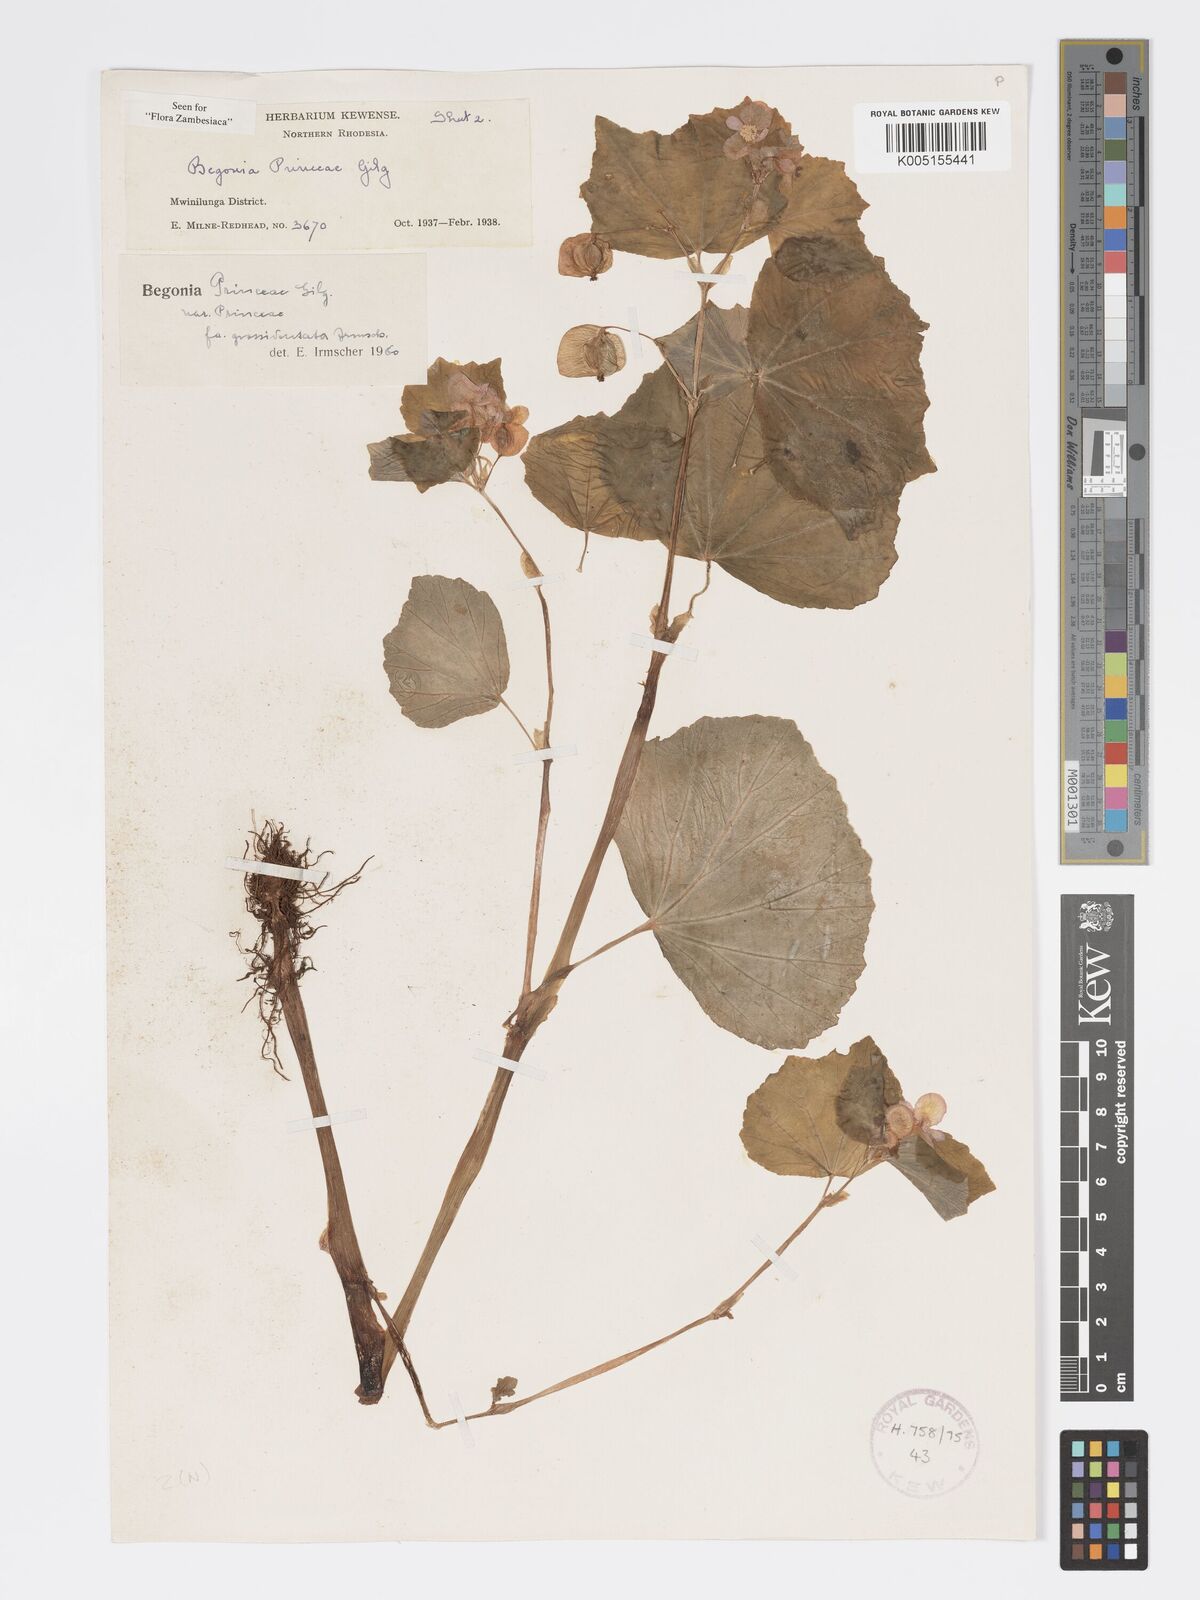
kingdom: Plantae
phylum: Tracheophyta
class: Magnoliopsida
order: Cucurbitales
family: Begoniaceae
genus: Begonia
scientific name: Begonia princeae
